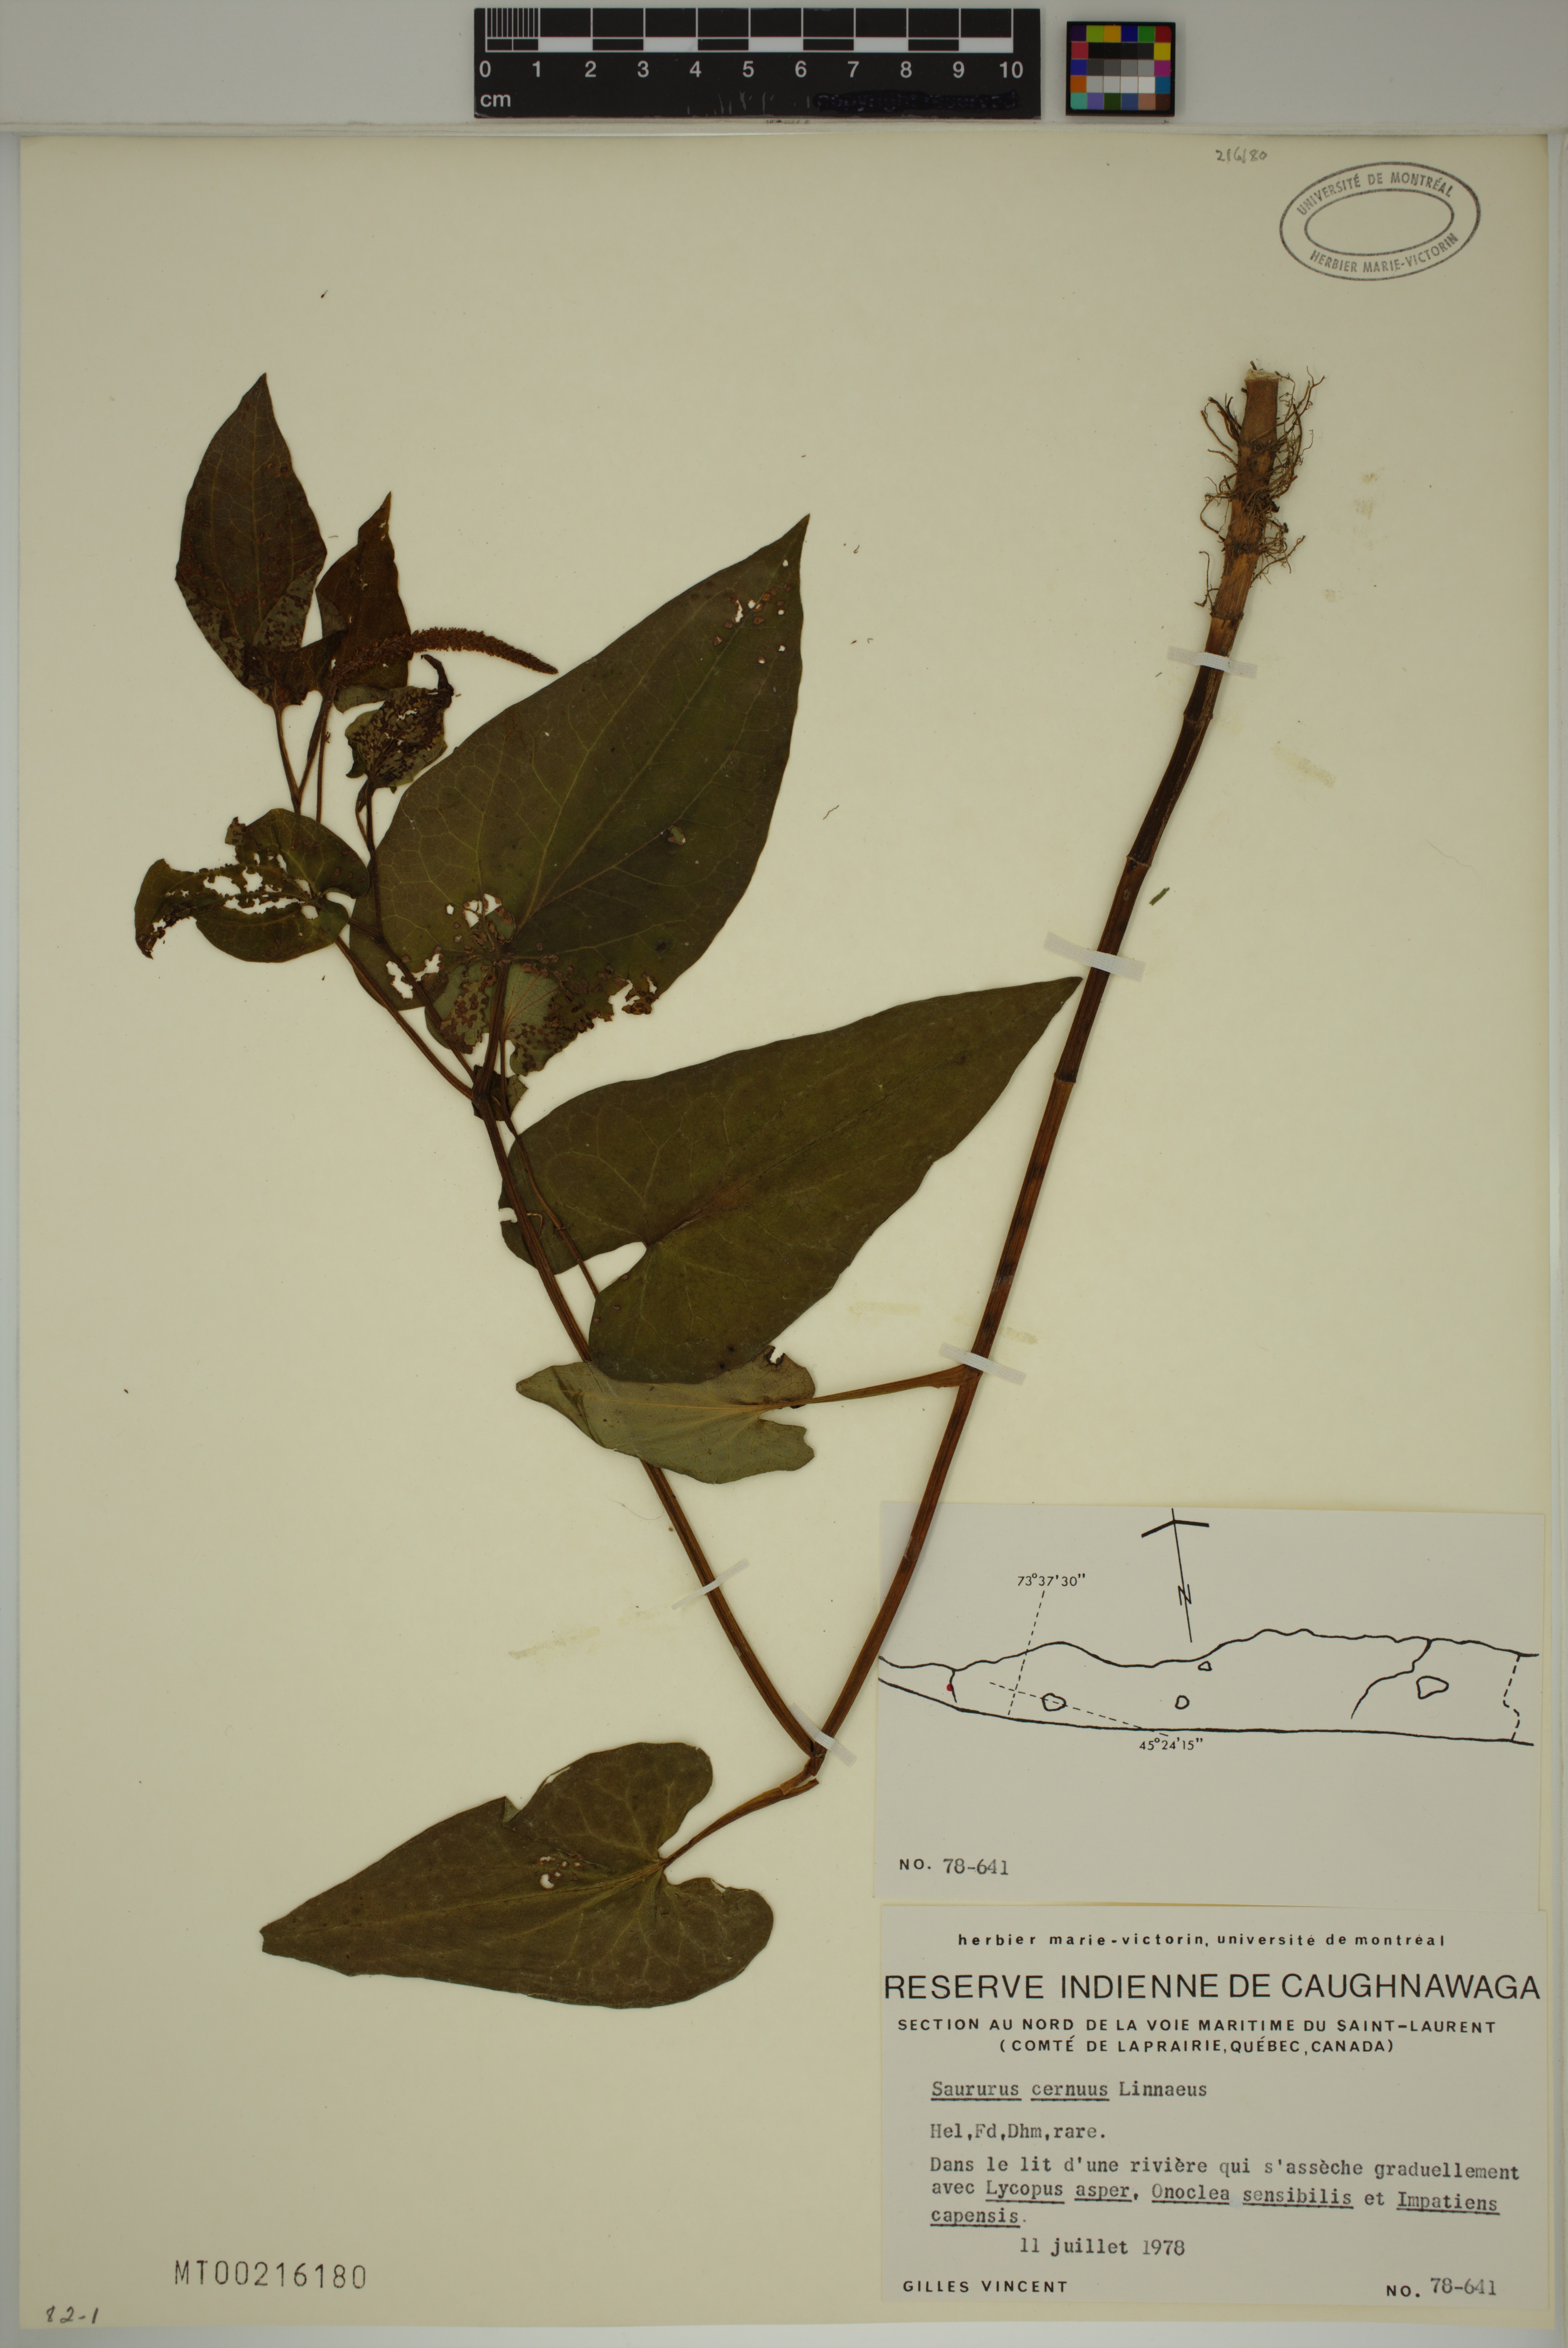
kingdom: Plantae
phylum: Tracheophyta
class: Magnoliopsida
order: Piperales
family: Saururaceae
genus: Saururus
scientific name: Saururus cernuus
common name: Lizard's-tail
